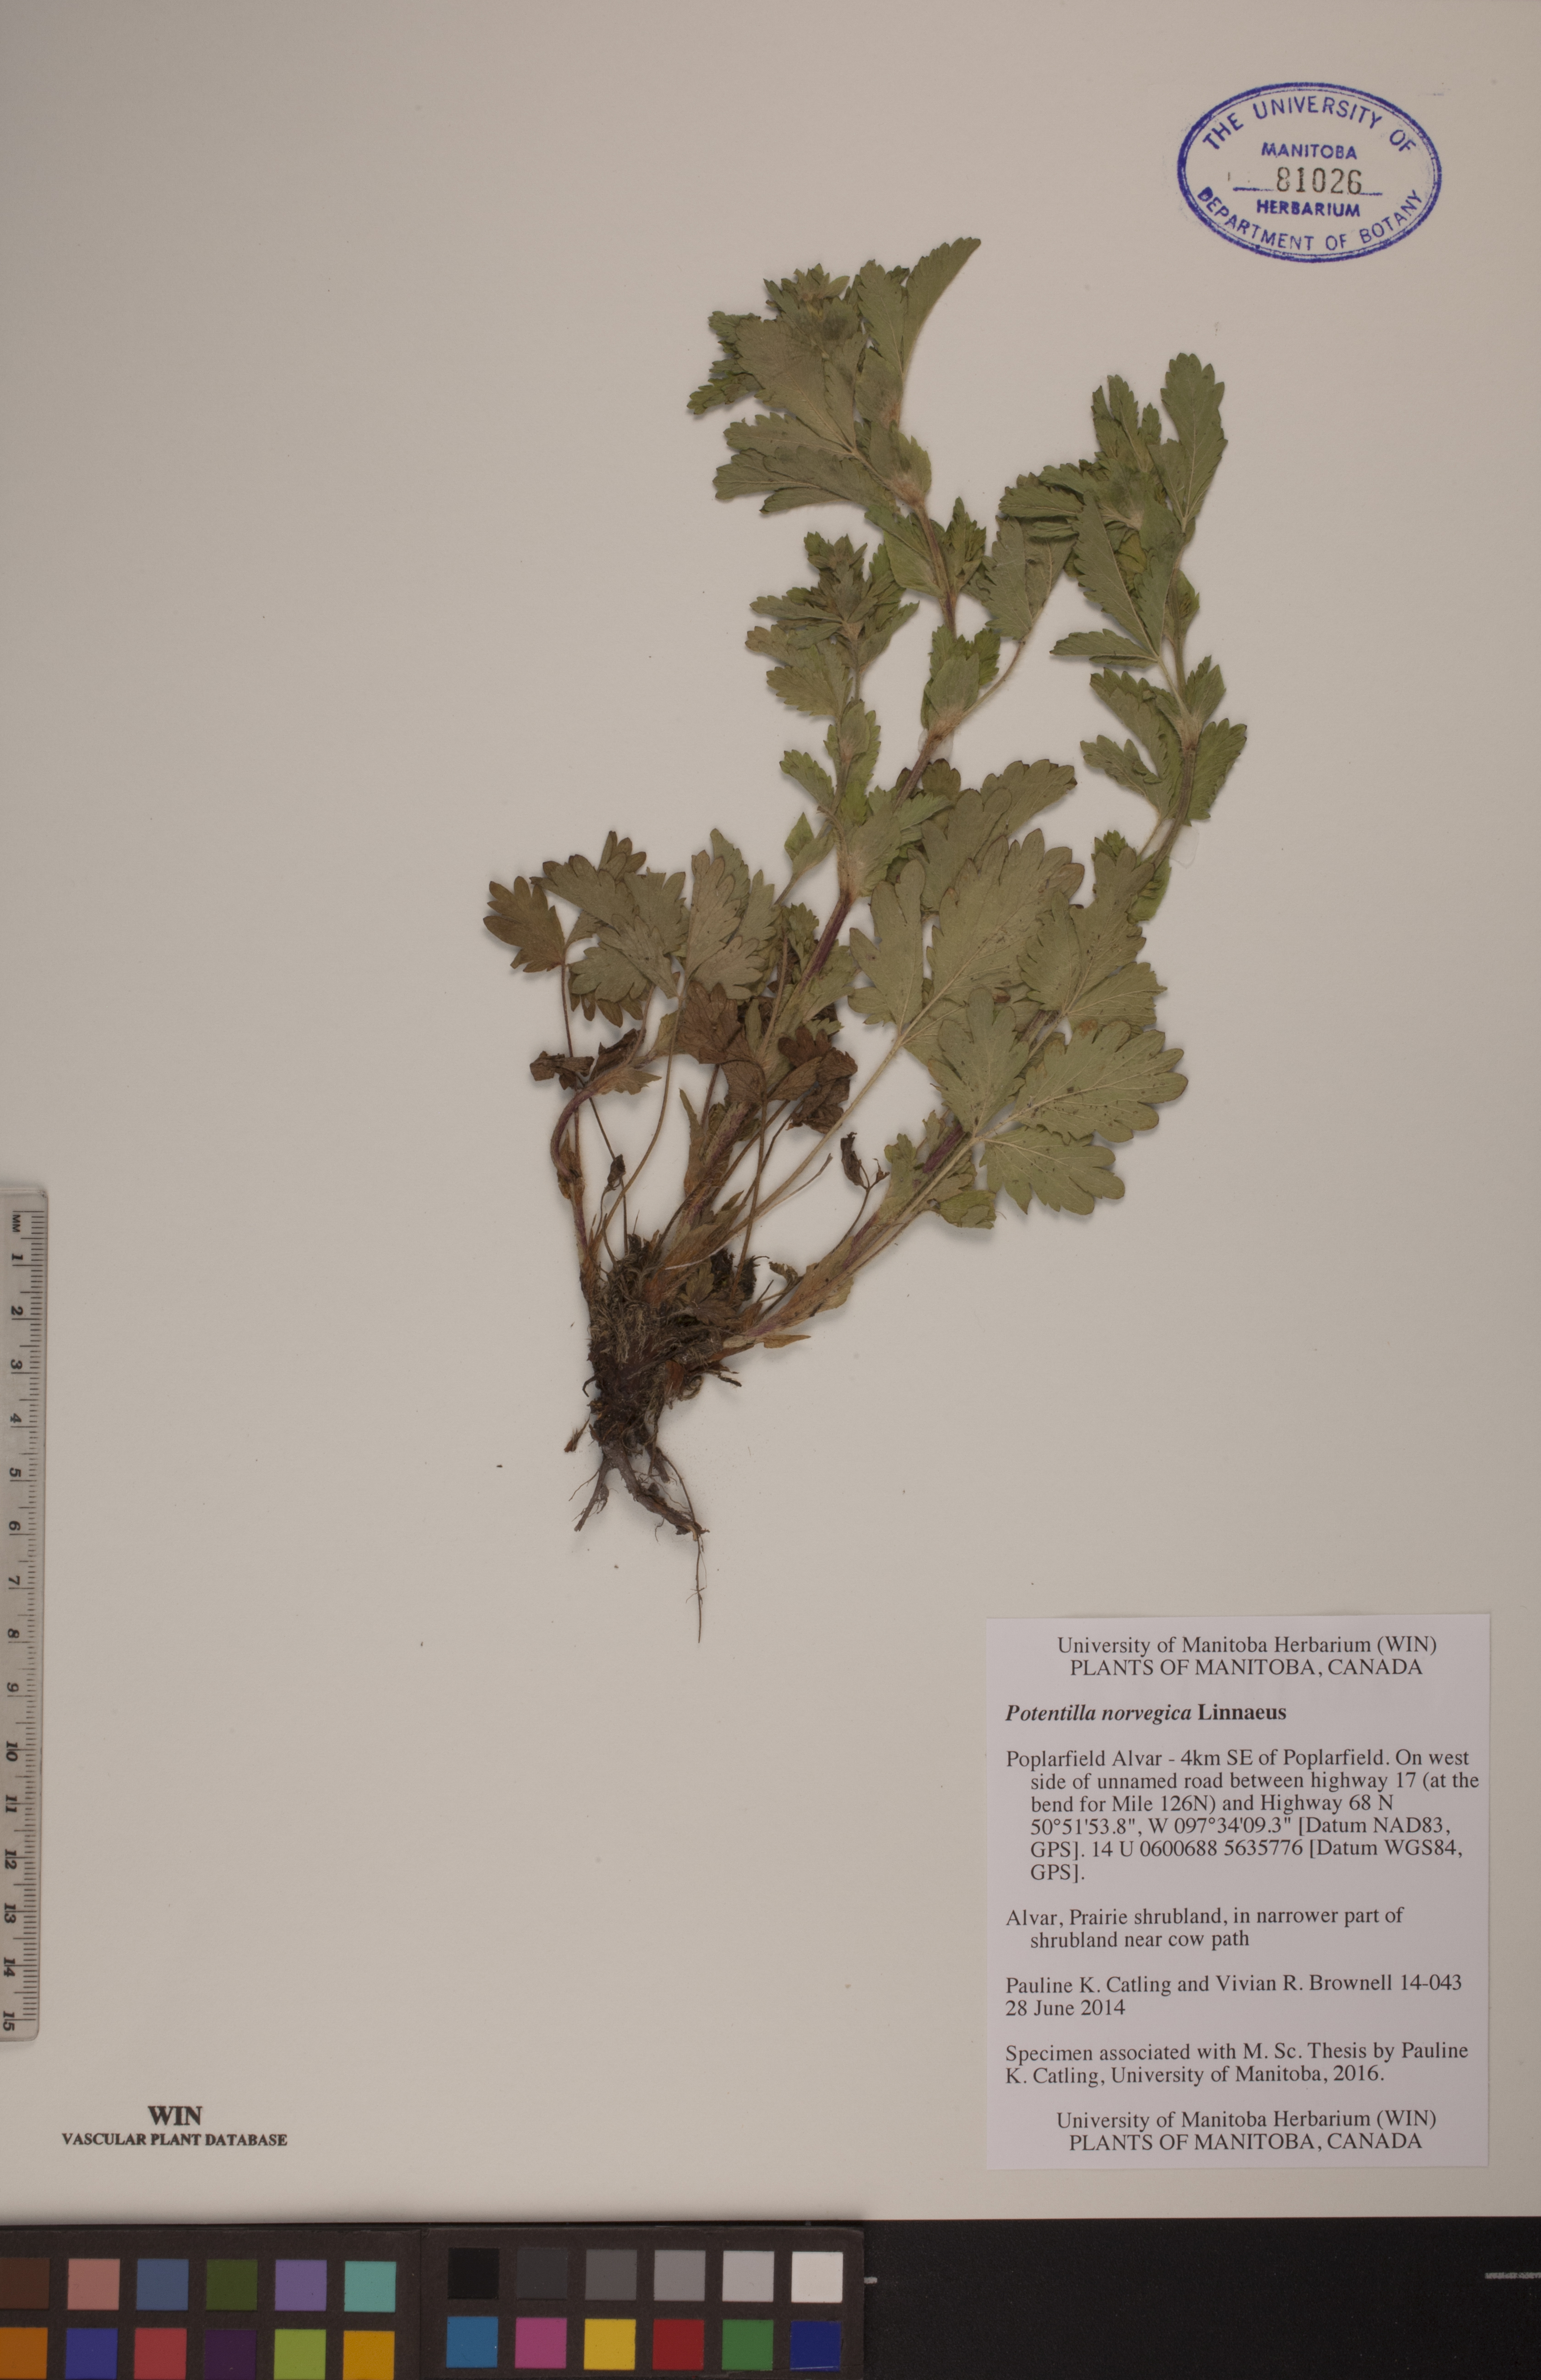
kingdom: Plantae
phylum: Tracheophyta
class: Magnoliopsida
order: Rosales
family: Rosaceae
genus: Potentilla
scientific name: Potentilla norvegica
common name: Ternate-leaved cinquefoil
